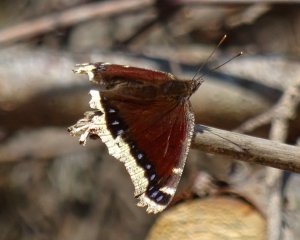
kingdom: Animalia
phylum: Arthropoda
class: Insecta
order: Lepidoptera
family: Nymphalidae
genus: Nymphalis
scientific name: Nymphalis antiopa
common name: Mourning Cloak
